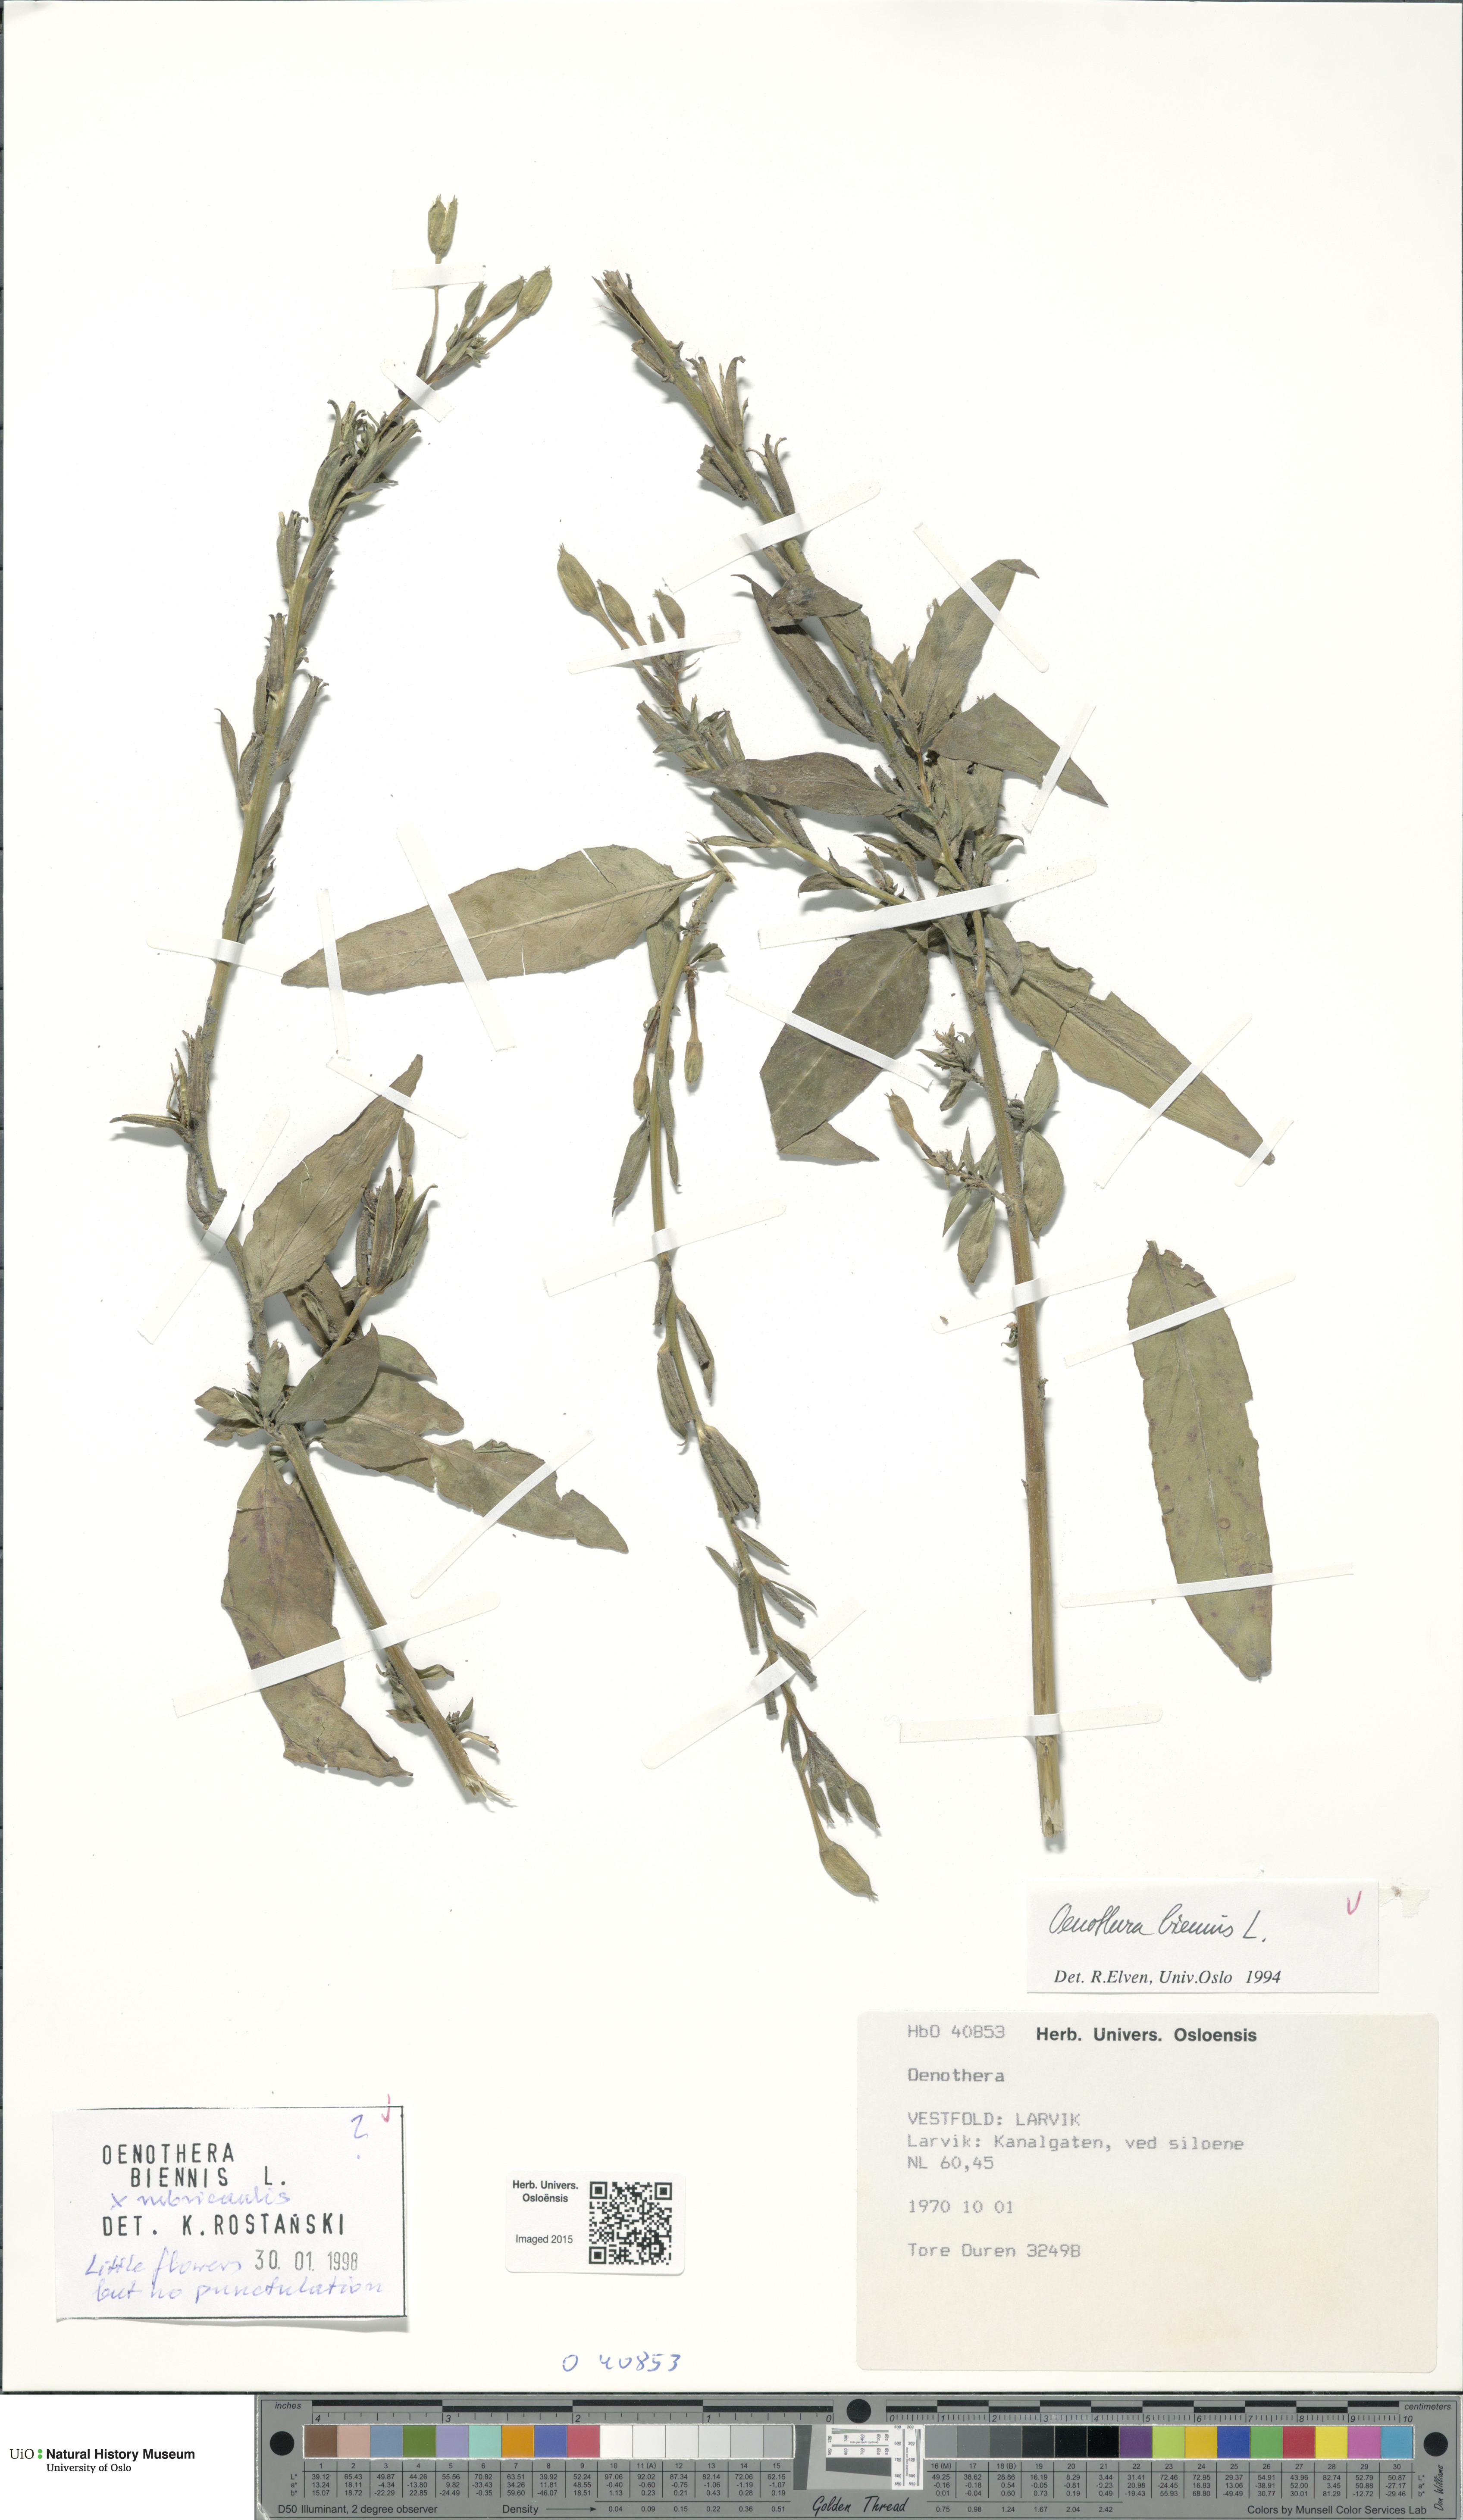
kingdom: Plantae
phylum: Tracheophyta
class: Magnoliopsida
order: Myrtales
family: Onagraceae
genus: Oenothera
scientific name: Oenothera
